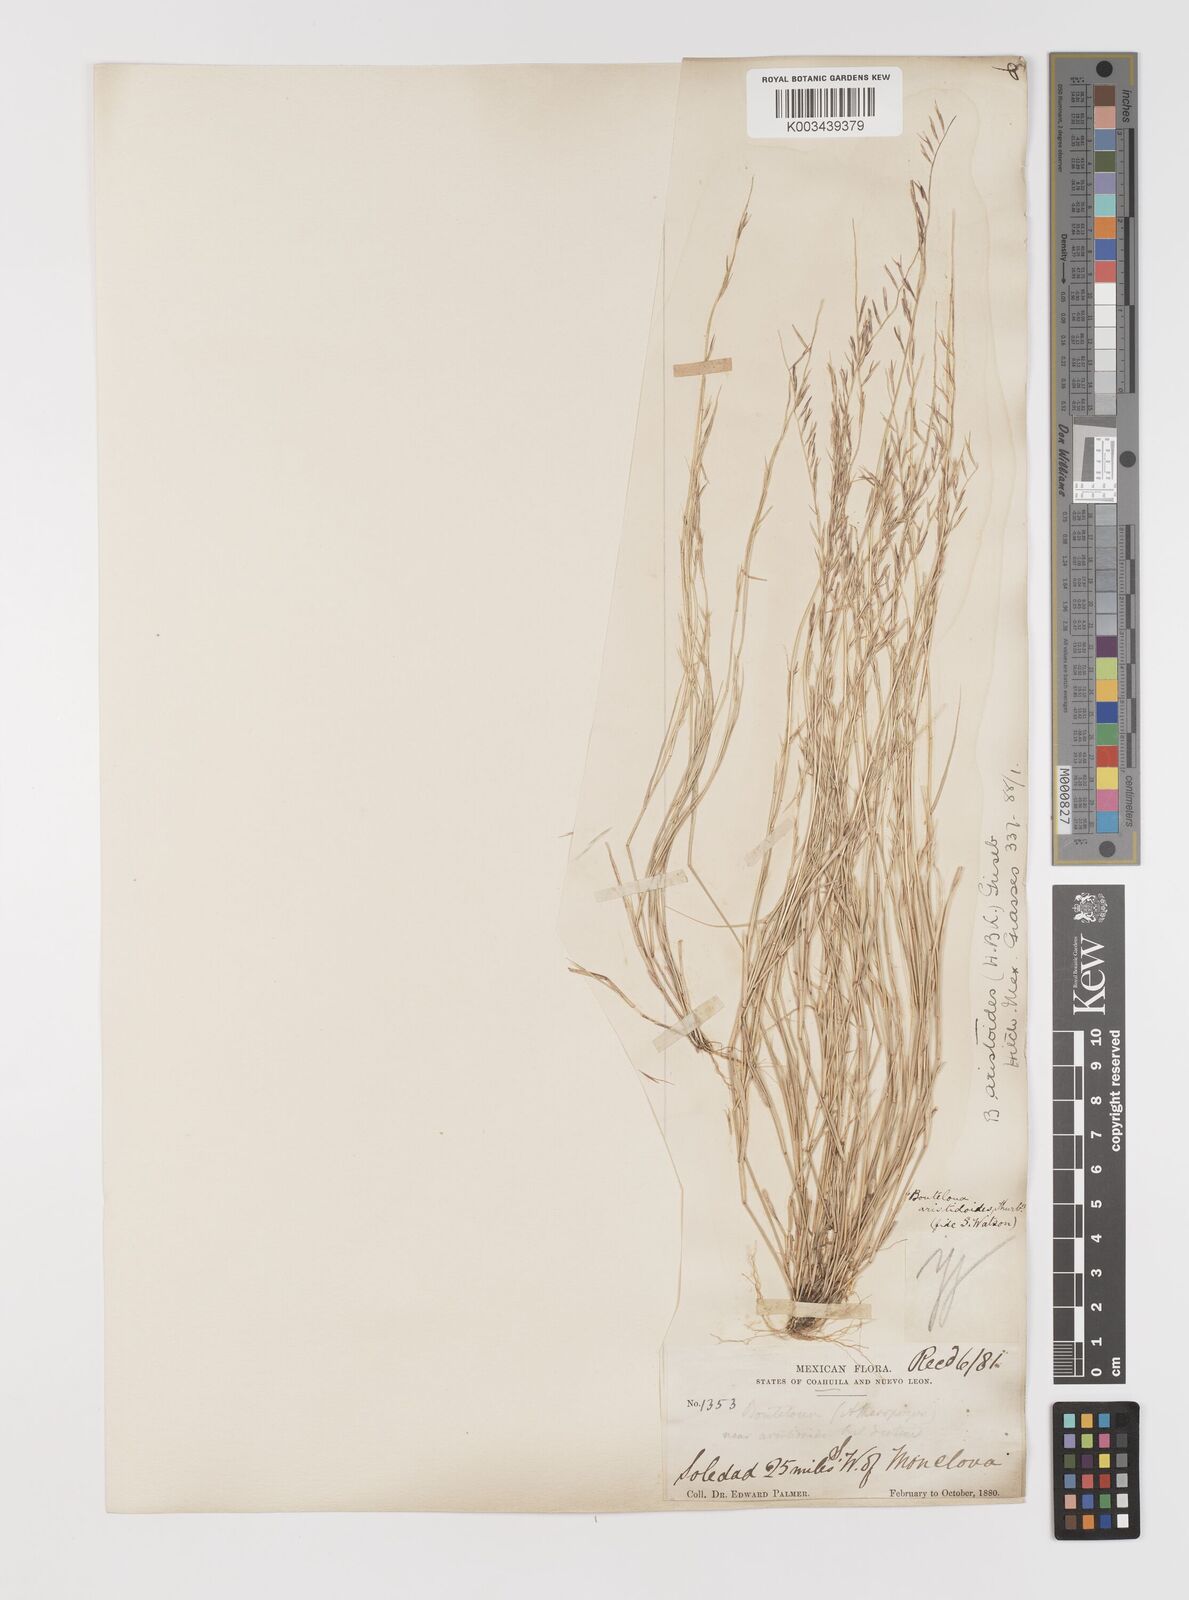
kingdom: Plantae
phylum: Tracheophyta
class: Liliopsida
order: Poales
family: Poaceae
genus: Bouteloua
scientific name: Bouteloua aristidoides
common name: Needle grama
